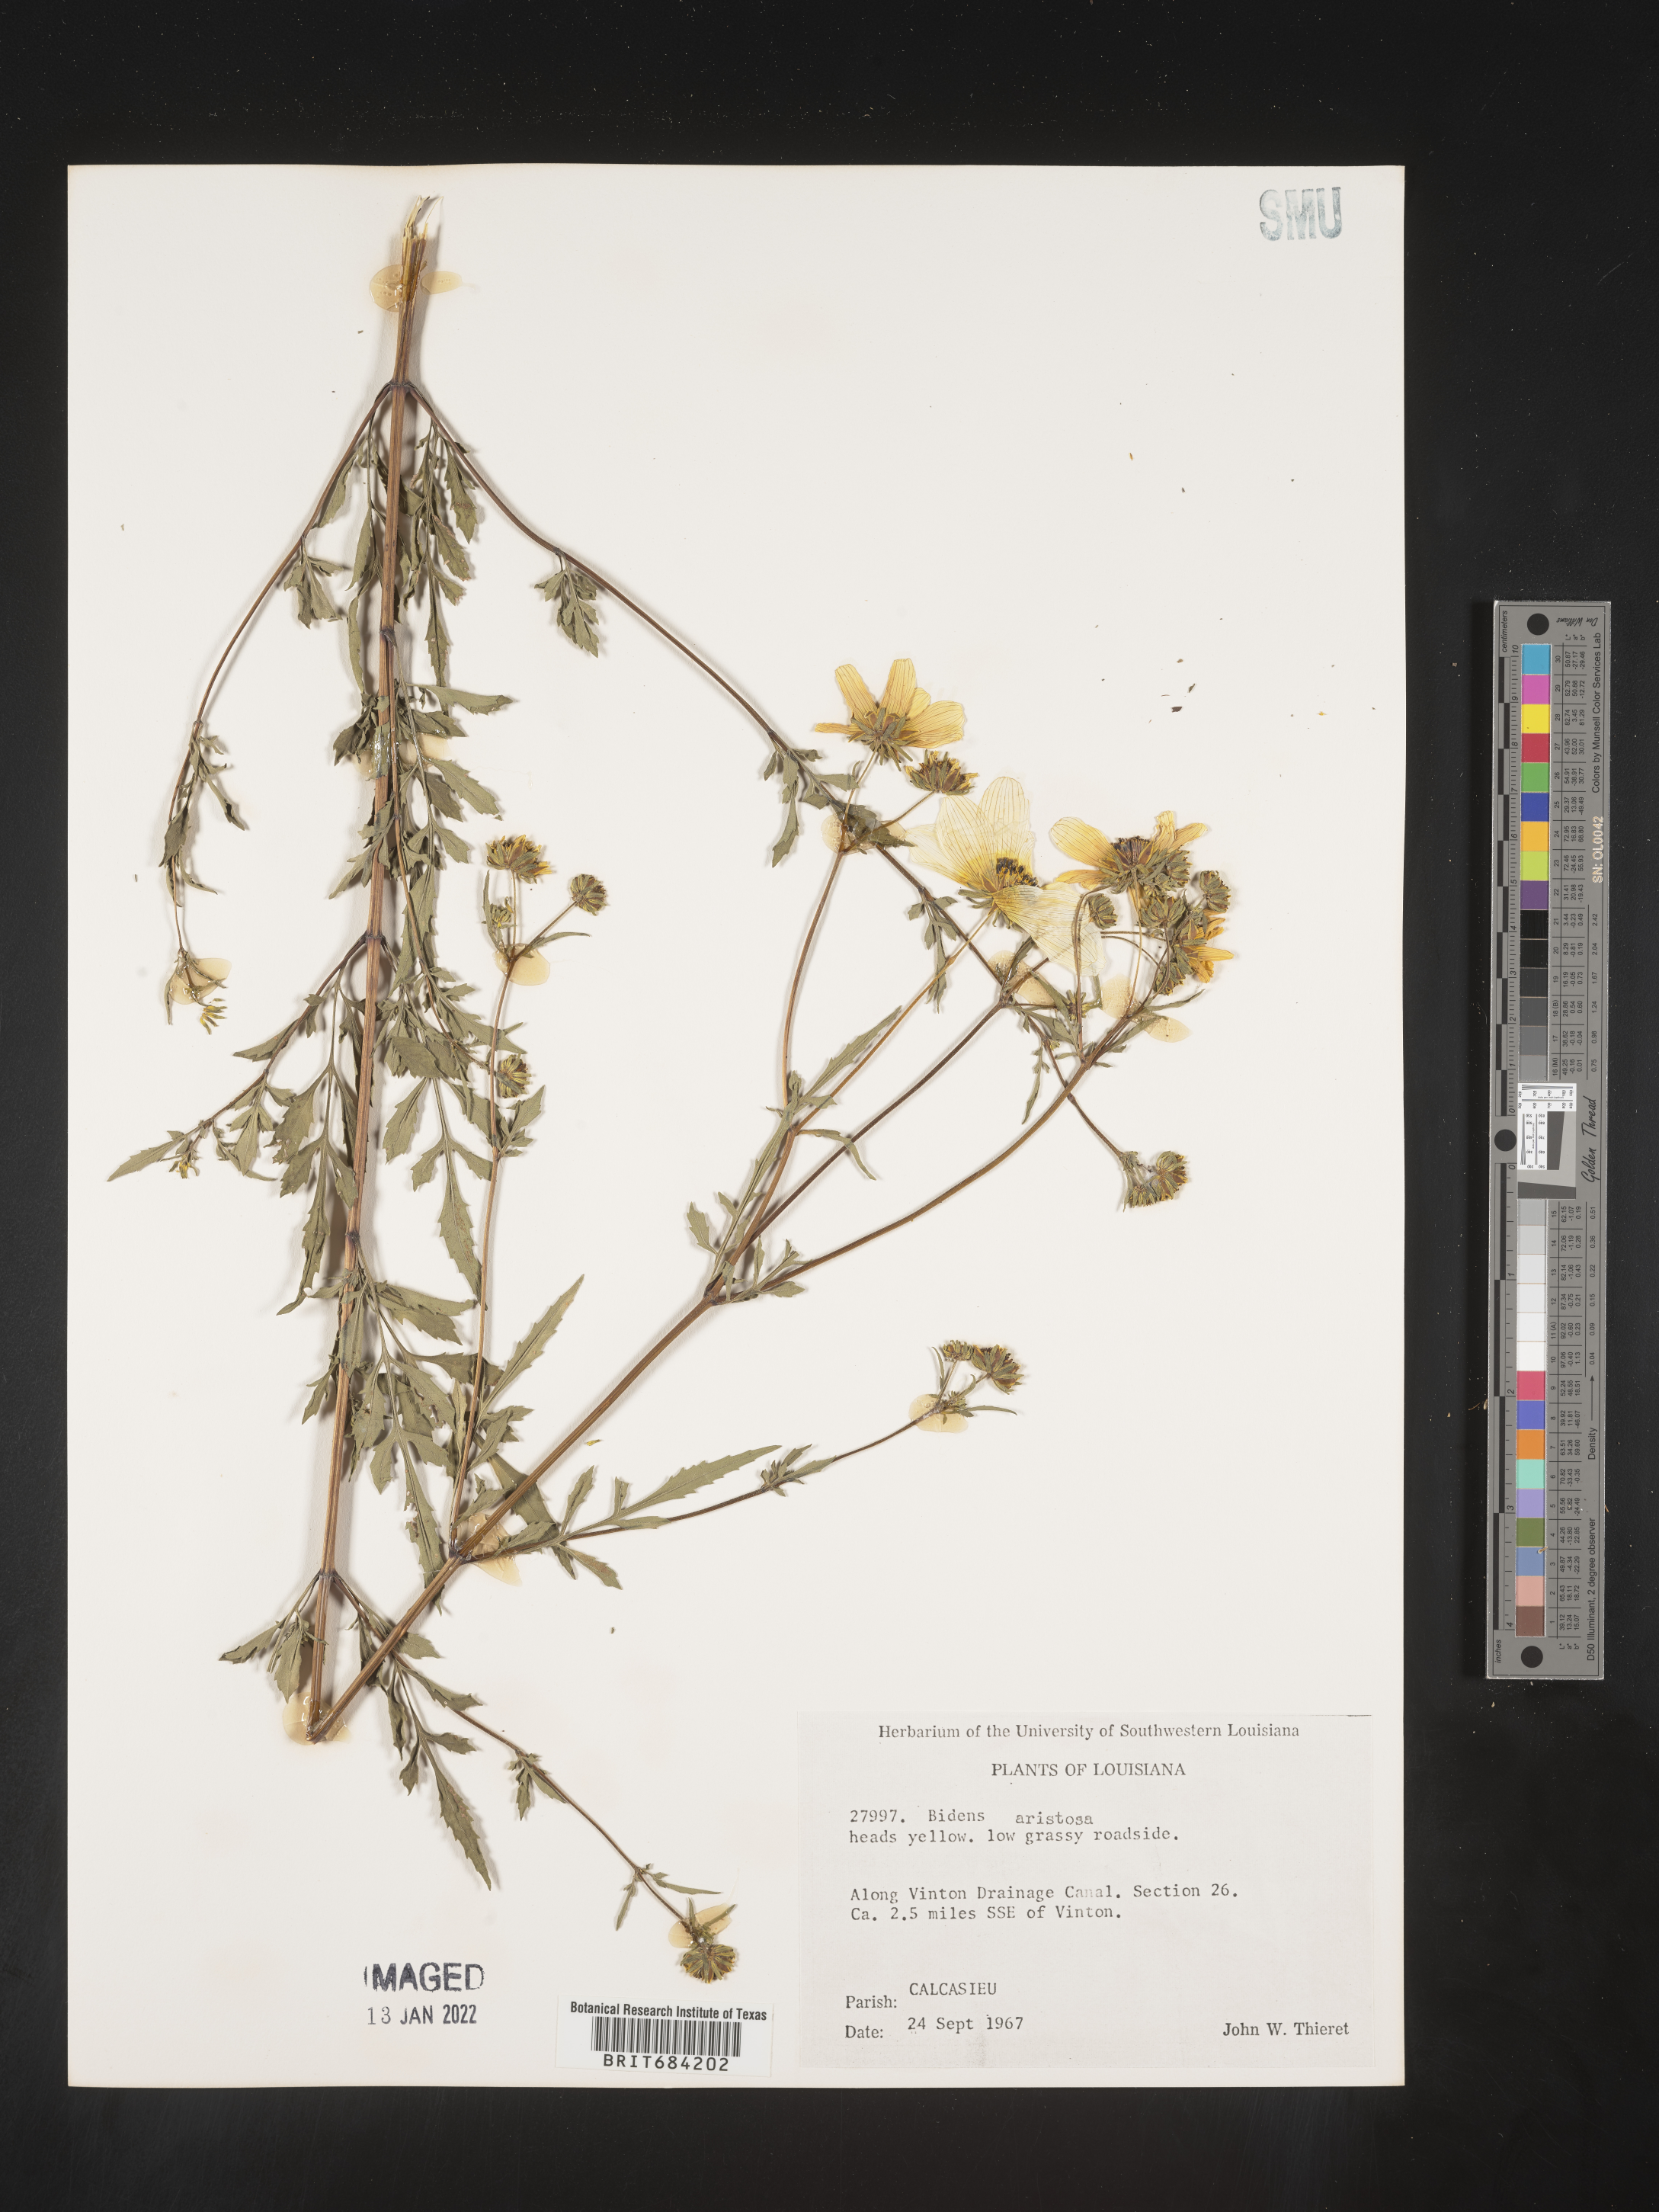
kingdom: Plantae
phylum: Tracheophyta
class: Magnoliopsida
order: Asterales
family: Asteraceae
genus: Bidens
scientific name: Bidens aristosa
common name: Western tickseed
